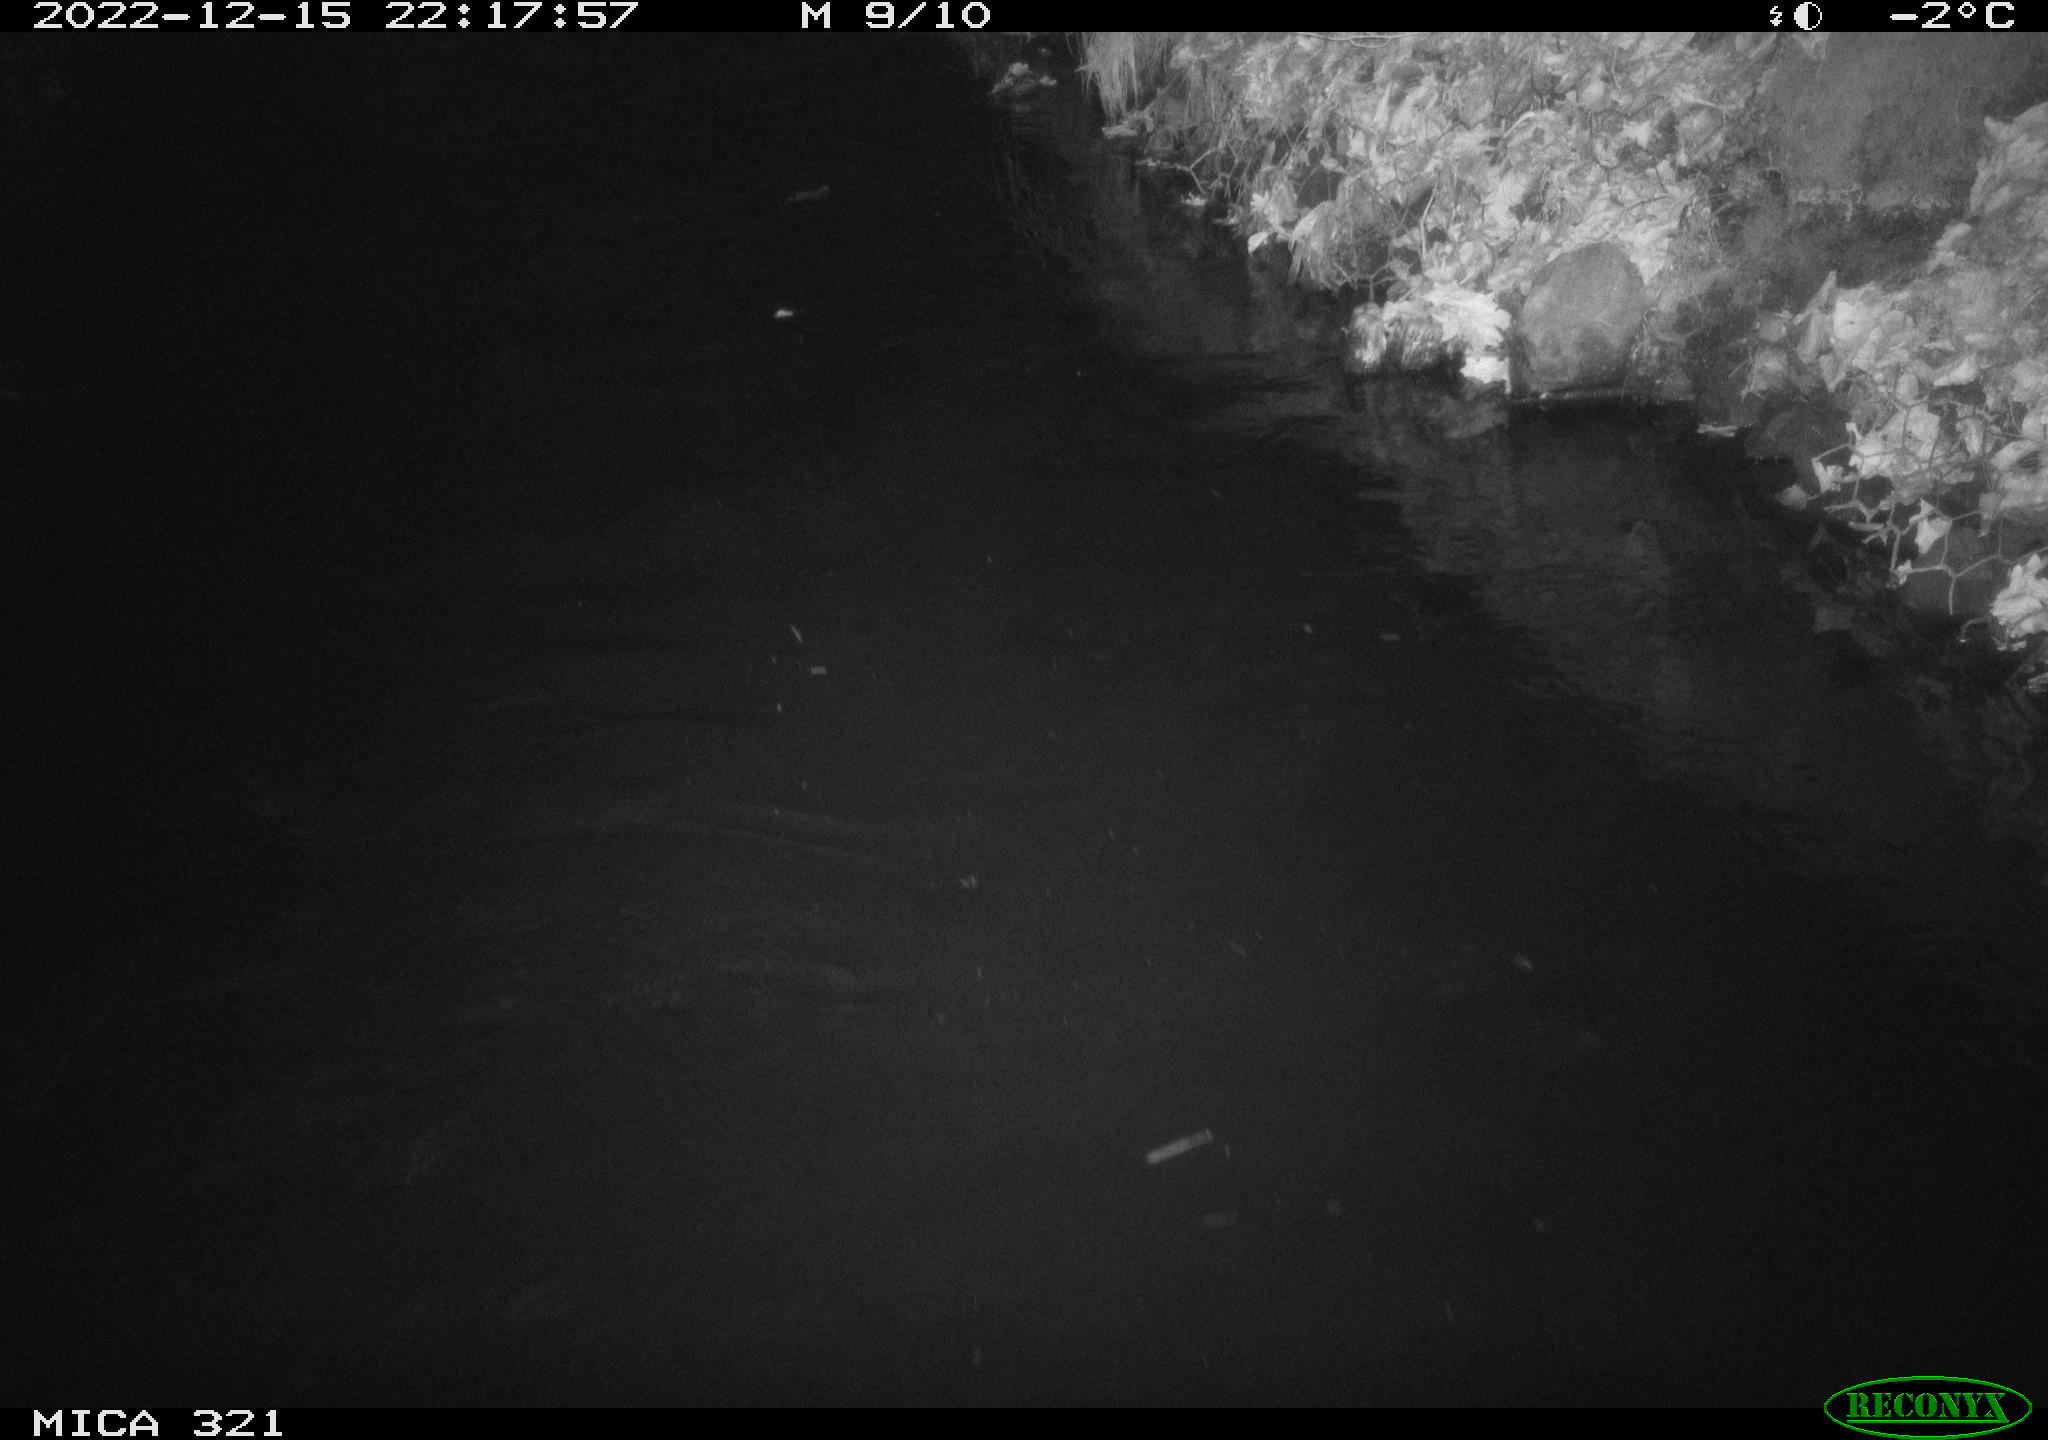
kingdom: Animalia
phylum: Chordata
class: Aves
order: Anseriformes
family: Anatidae
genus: Anas
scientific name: Anas
